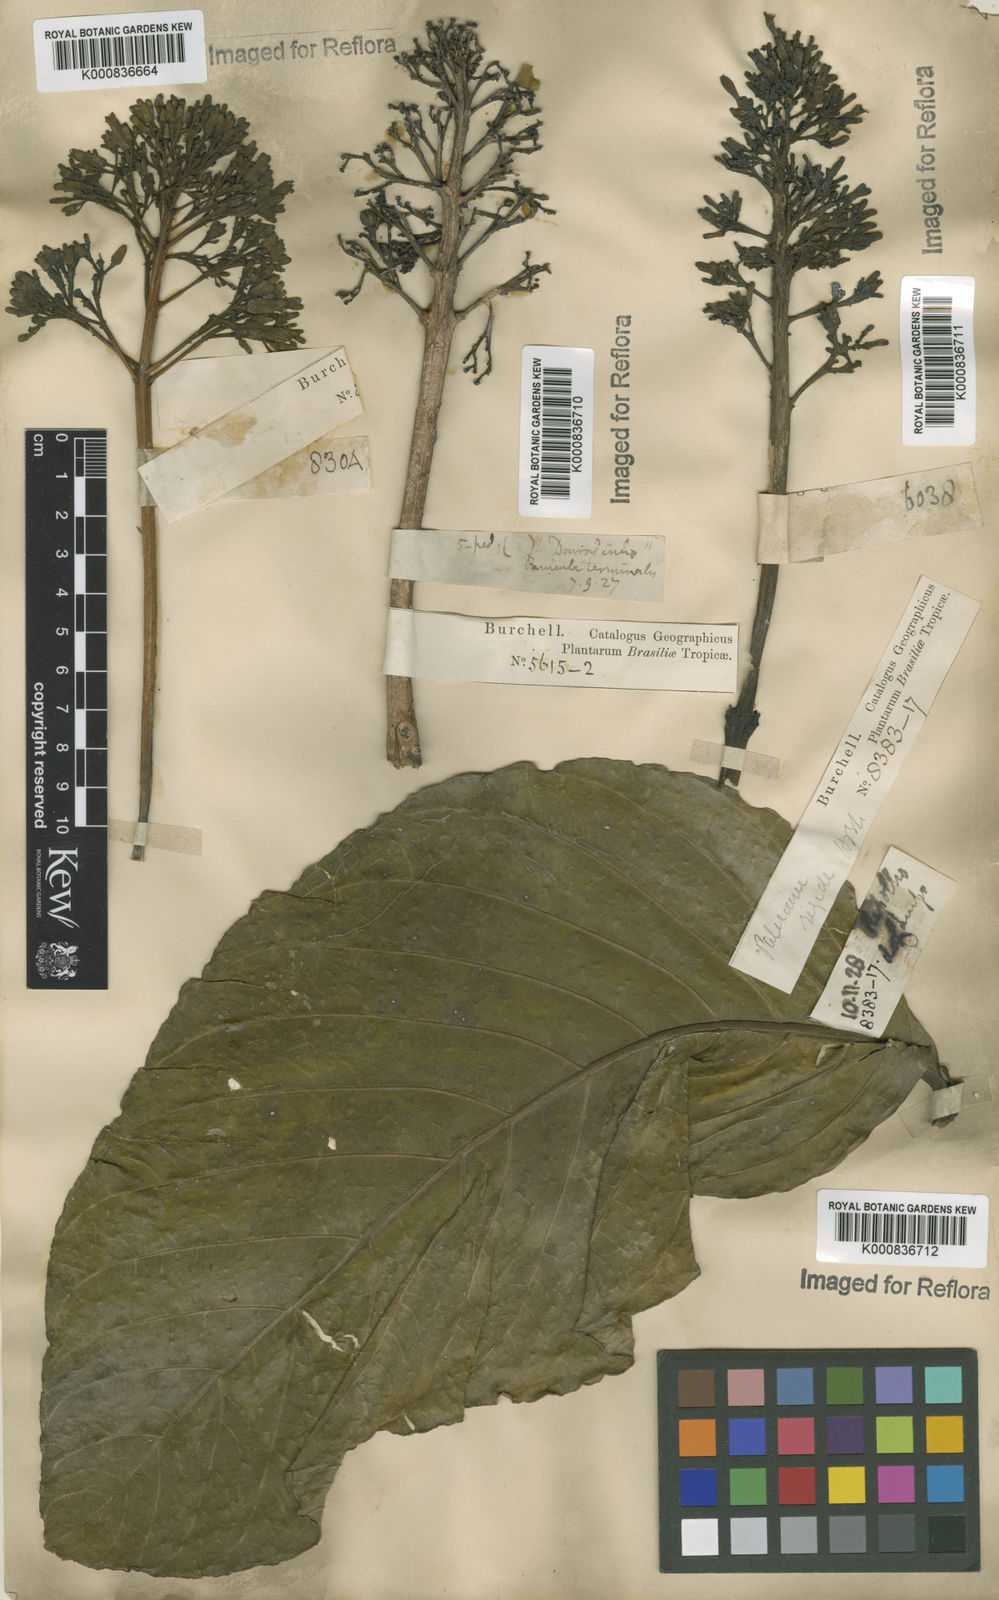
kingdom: Plantae
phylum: Tracheophyta
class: Magnoliopsida
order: Gentianales
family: Rubiaceae
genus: Palicourea
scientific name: Palicourea rigida
